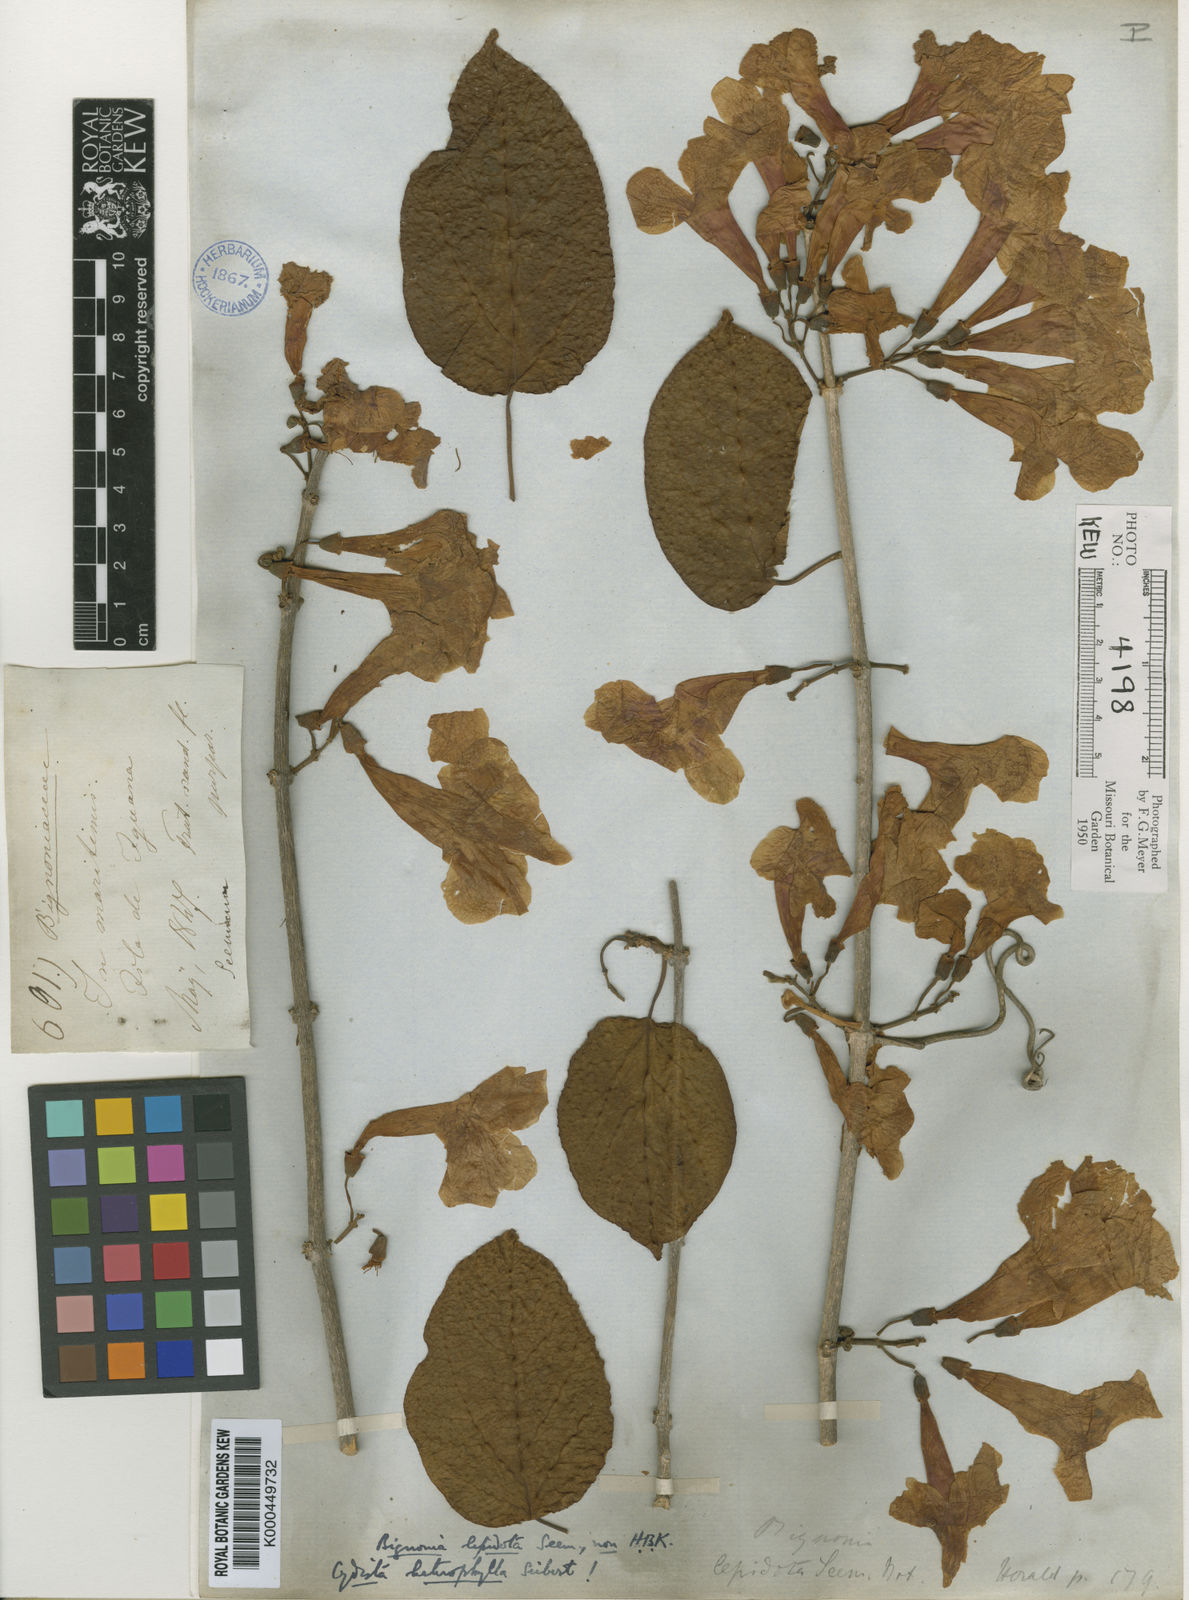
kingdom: Plantae
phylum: Tracheophyta
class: Magnoliopsida
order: Lamiales
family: Bignoniaceae
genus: Bignonia
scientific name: Bignonia neoheterophylla
